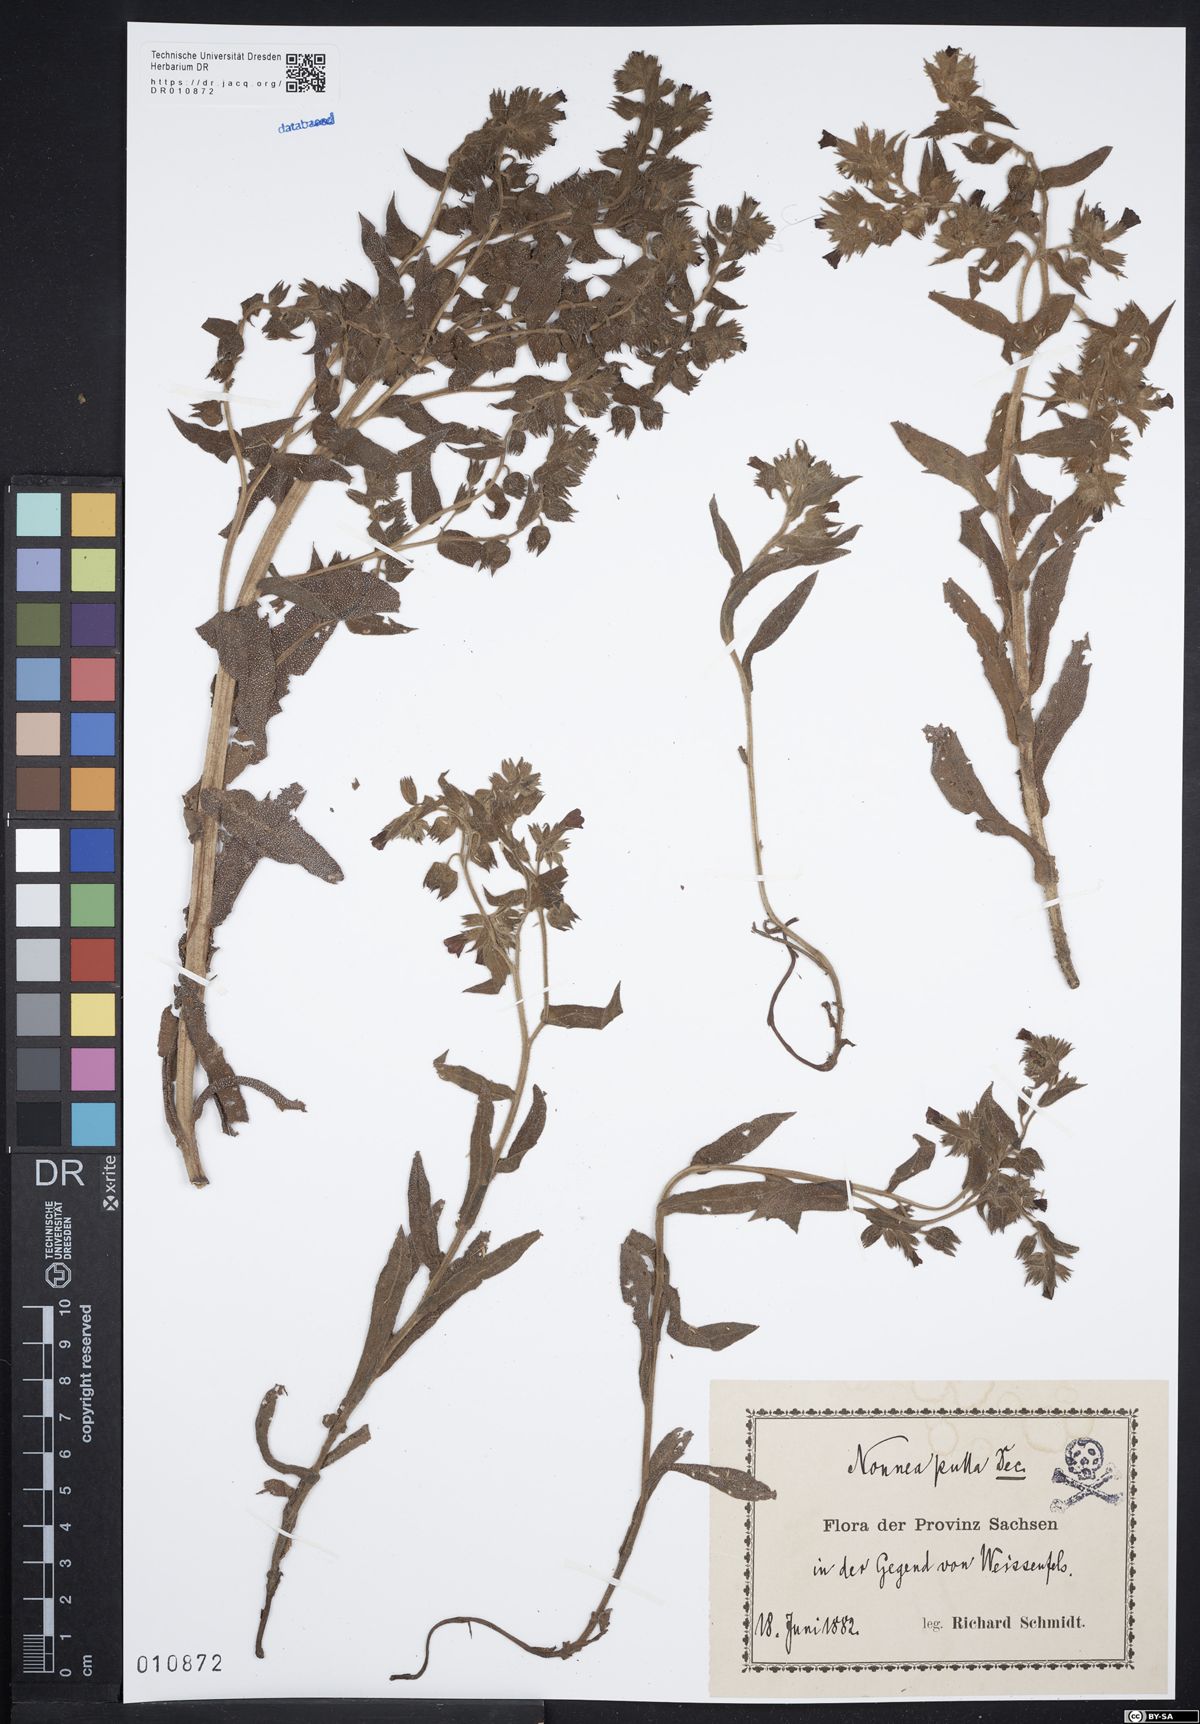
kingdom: Plantae
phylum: Tracheophyta
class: Magnoliopsida
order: Boraginales
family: Boraginaceae
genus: Nonea
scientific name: Nonea pulla
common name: Brown nonea
